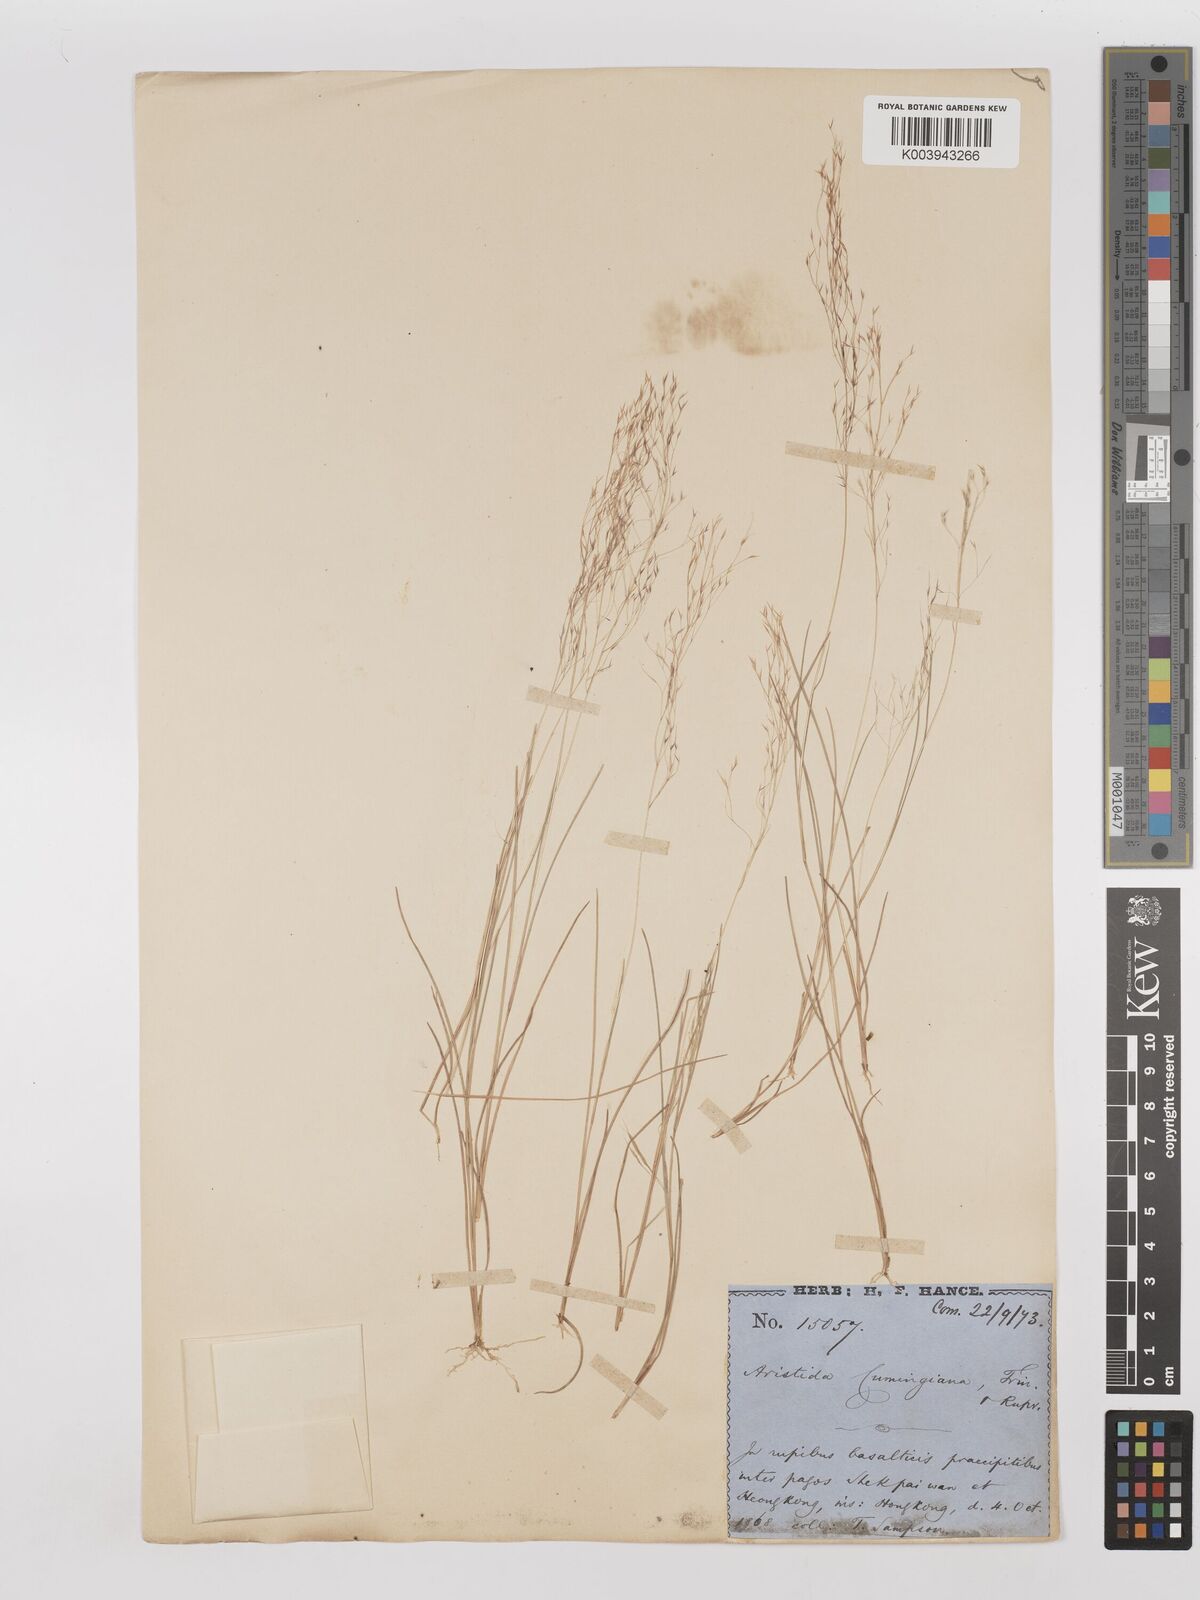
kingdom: Plantae
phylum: Tracheophyta
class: Liliopsida
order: Poales
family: Poaceae
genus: Aristida
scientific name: Aristida cumingiana
